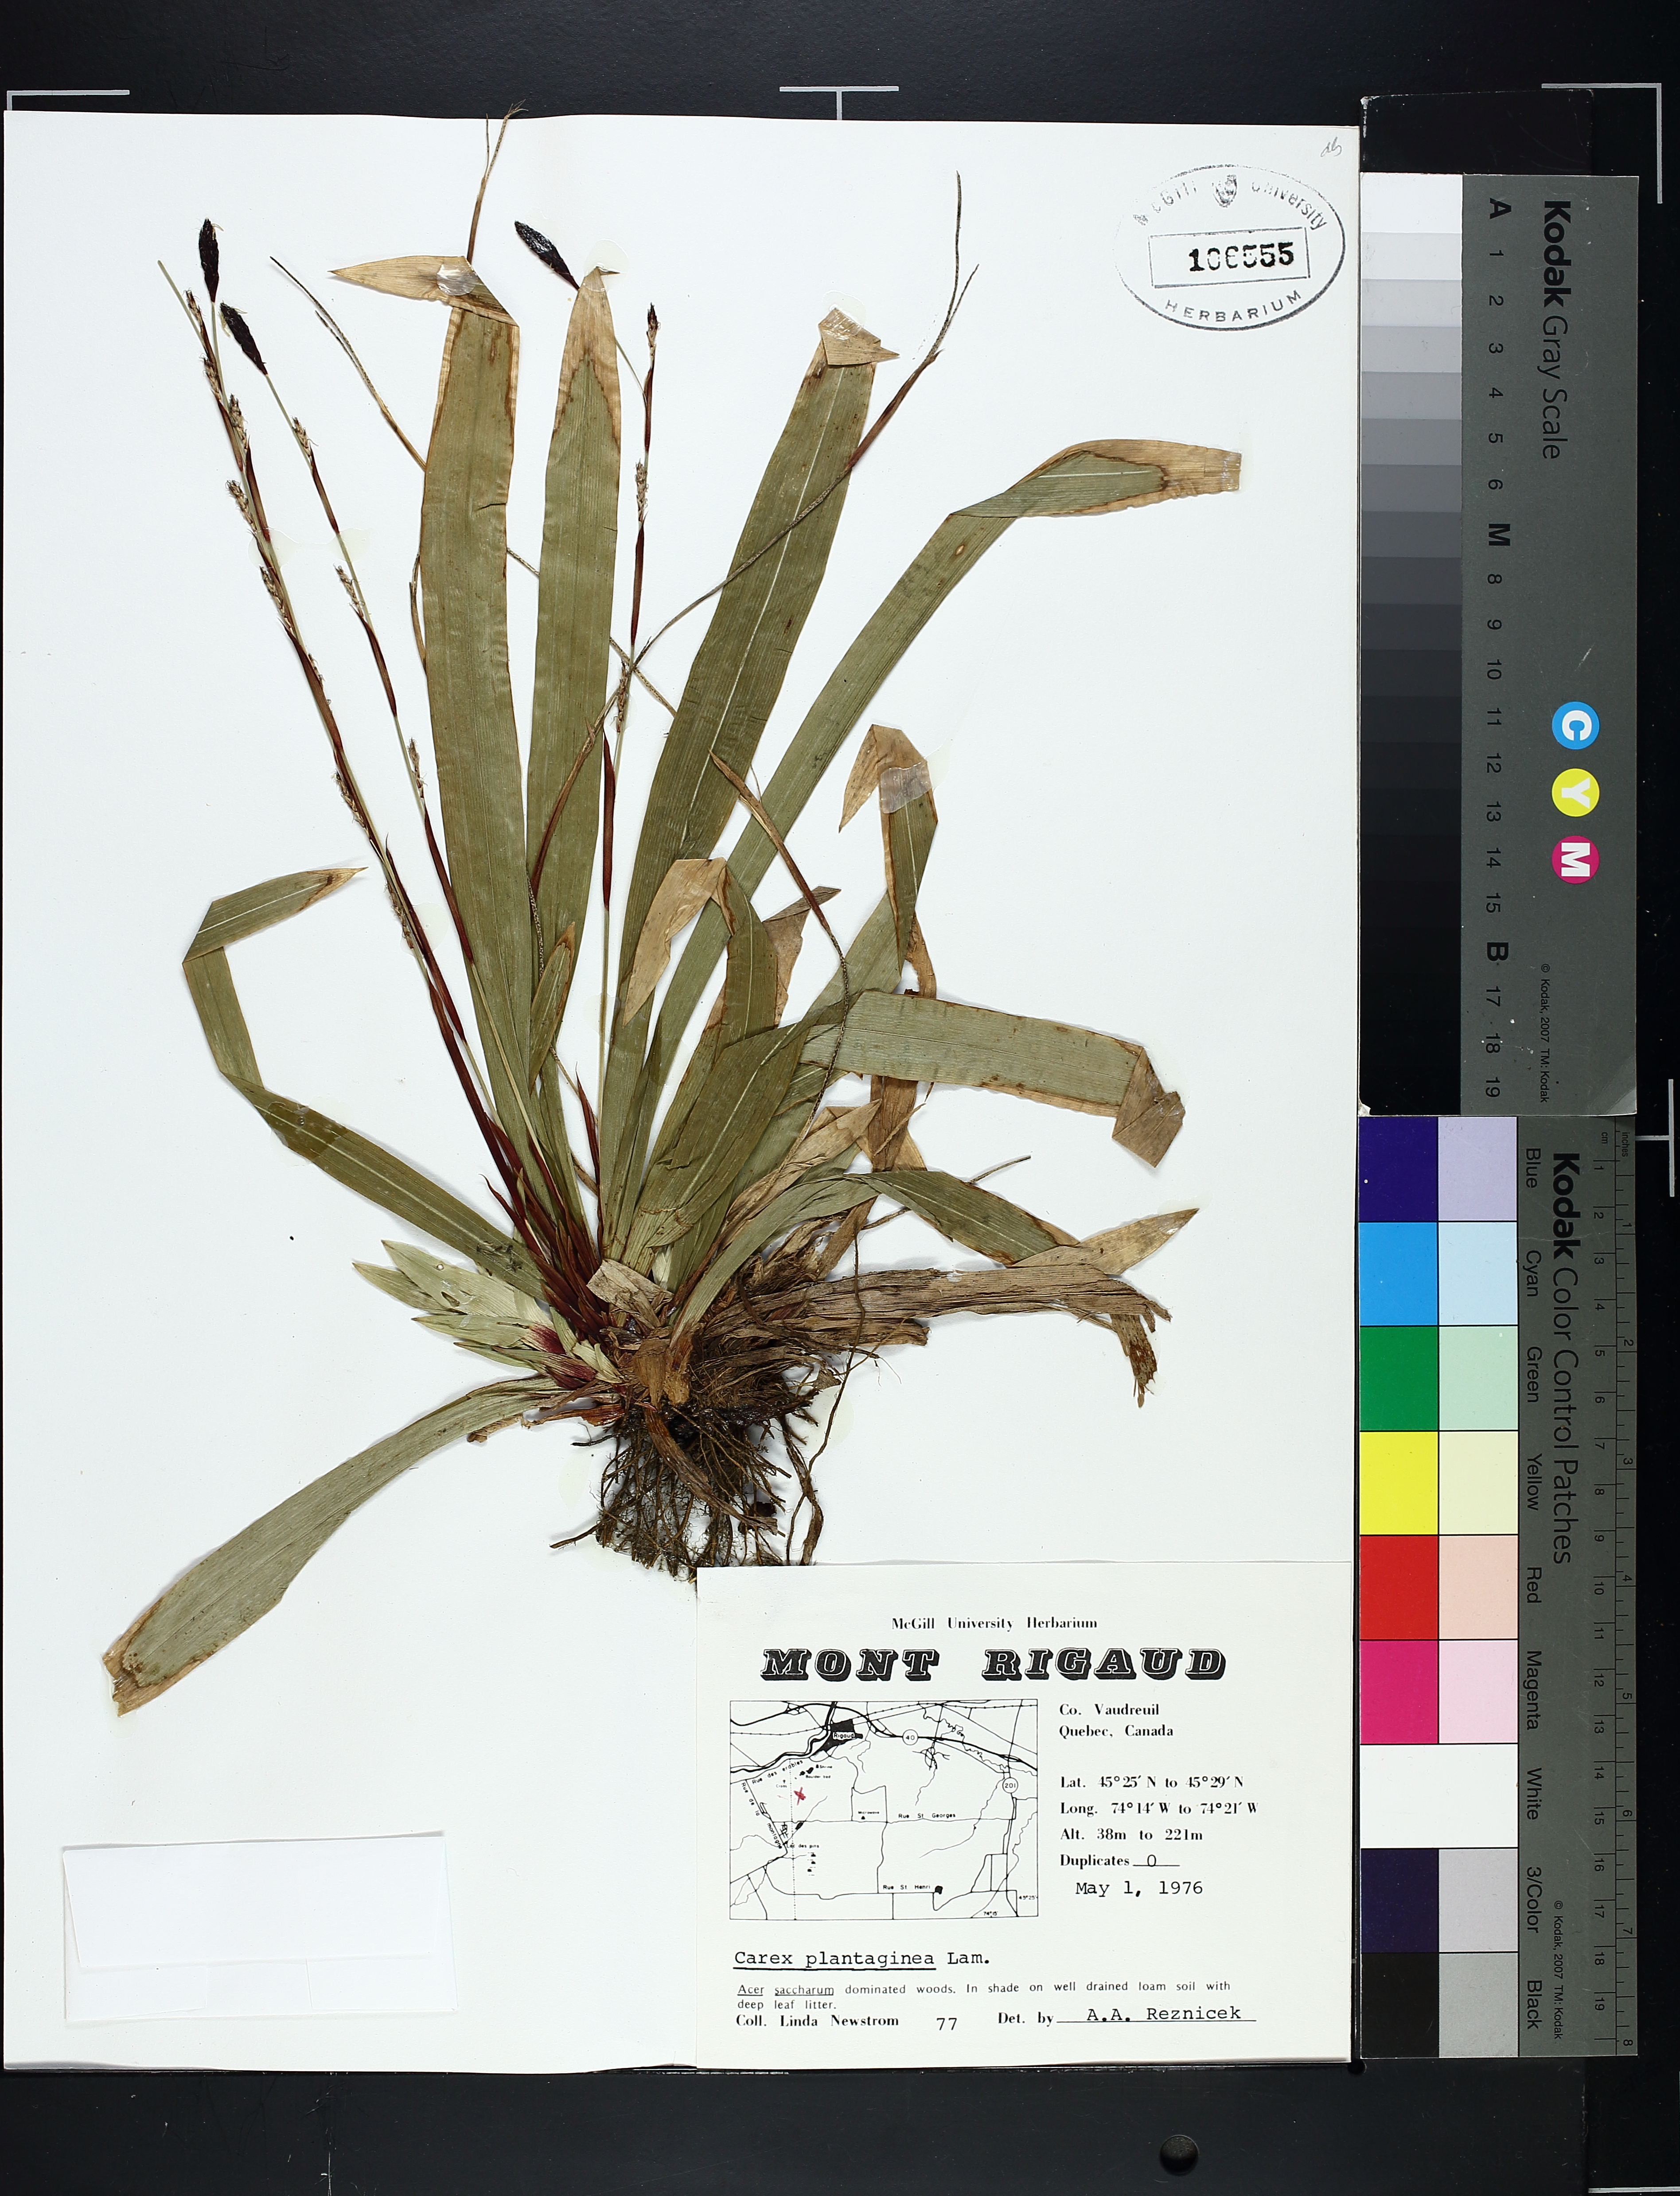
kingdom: Plantae
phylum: Tracheophyta
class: Liliopsida
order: Poales
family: Cyperaceae
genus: Carex
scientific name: Carex plantaginea
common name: Plantain-leaved sedge
